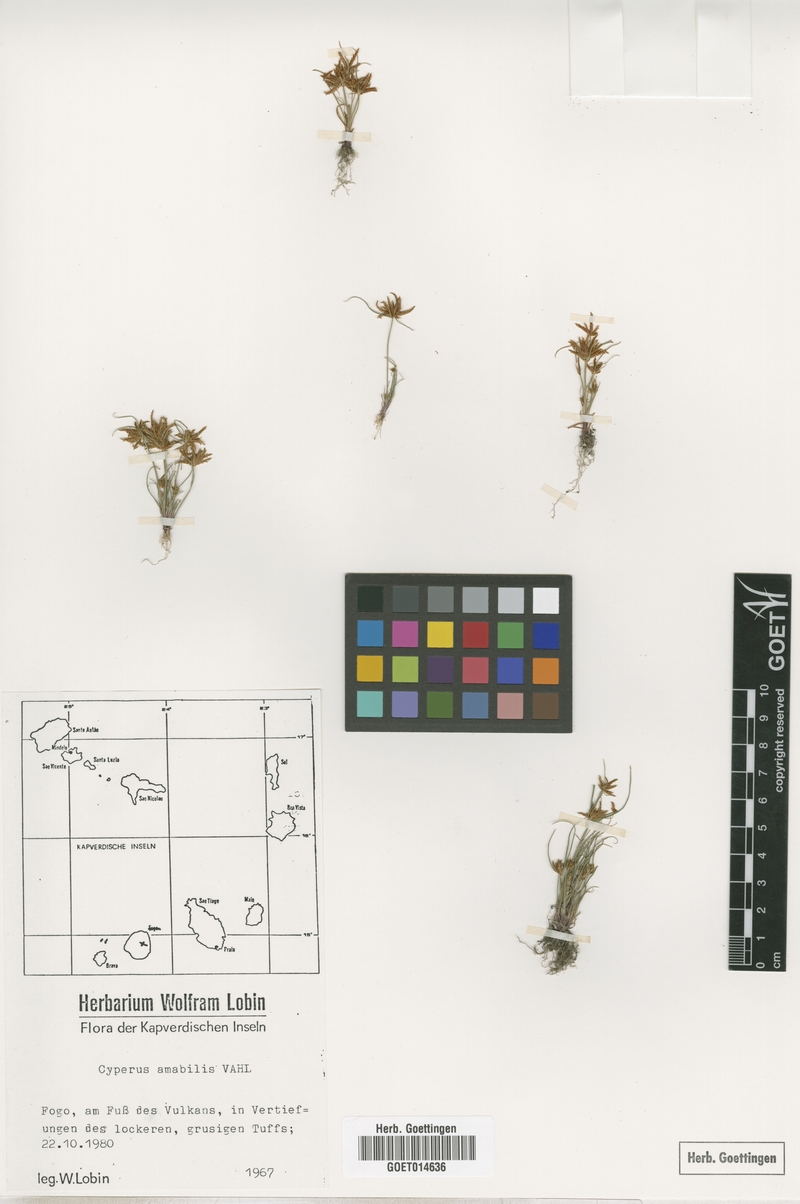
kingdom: Plantae
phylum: Tracheophyta
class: Liliopsida
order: Poales
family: Cyperaceae
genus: Cyperus
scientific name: Cyperus amabilis
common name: Foothill flat sedge
